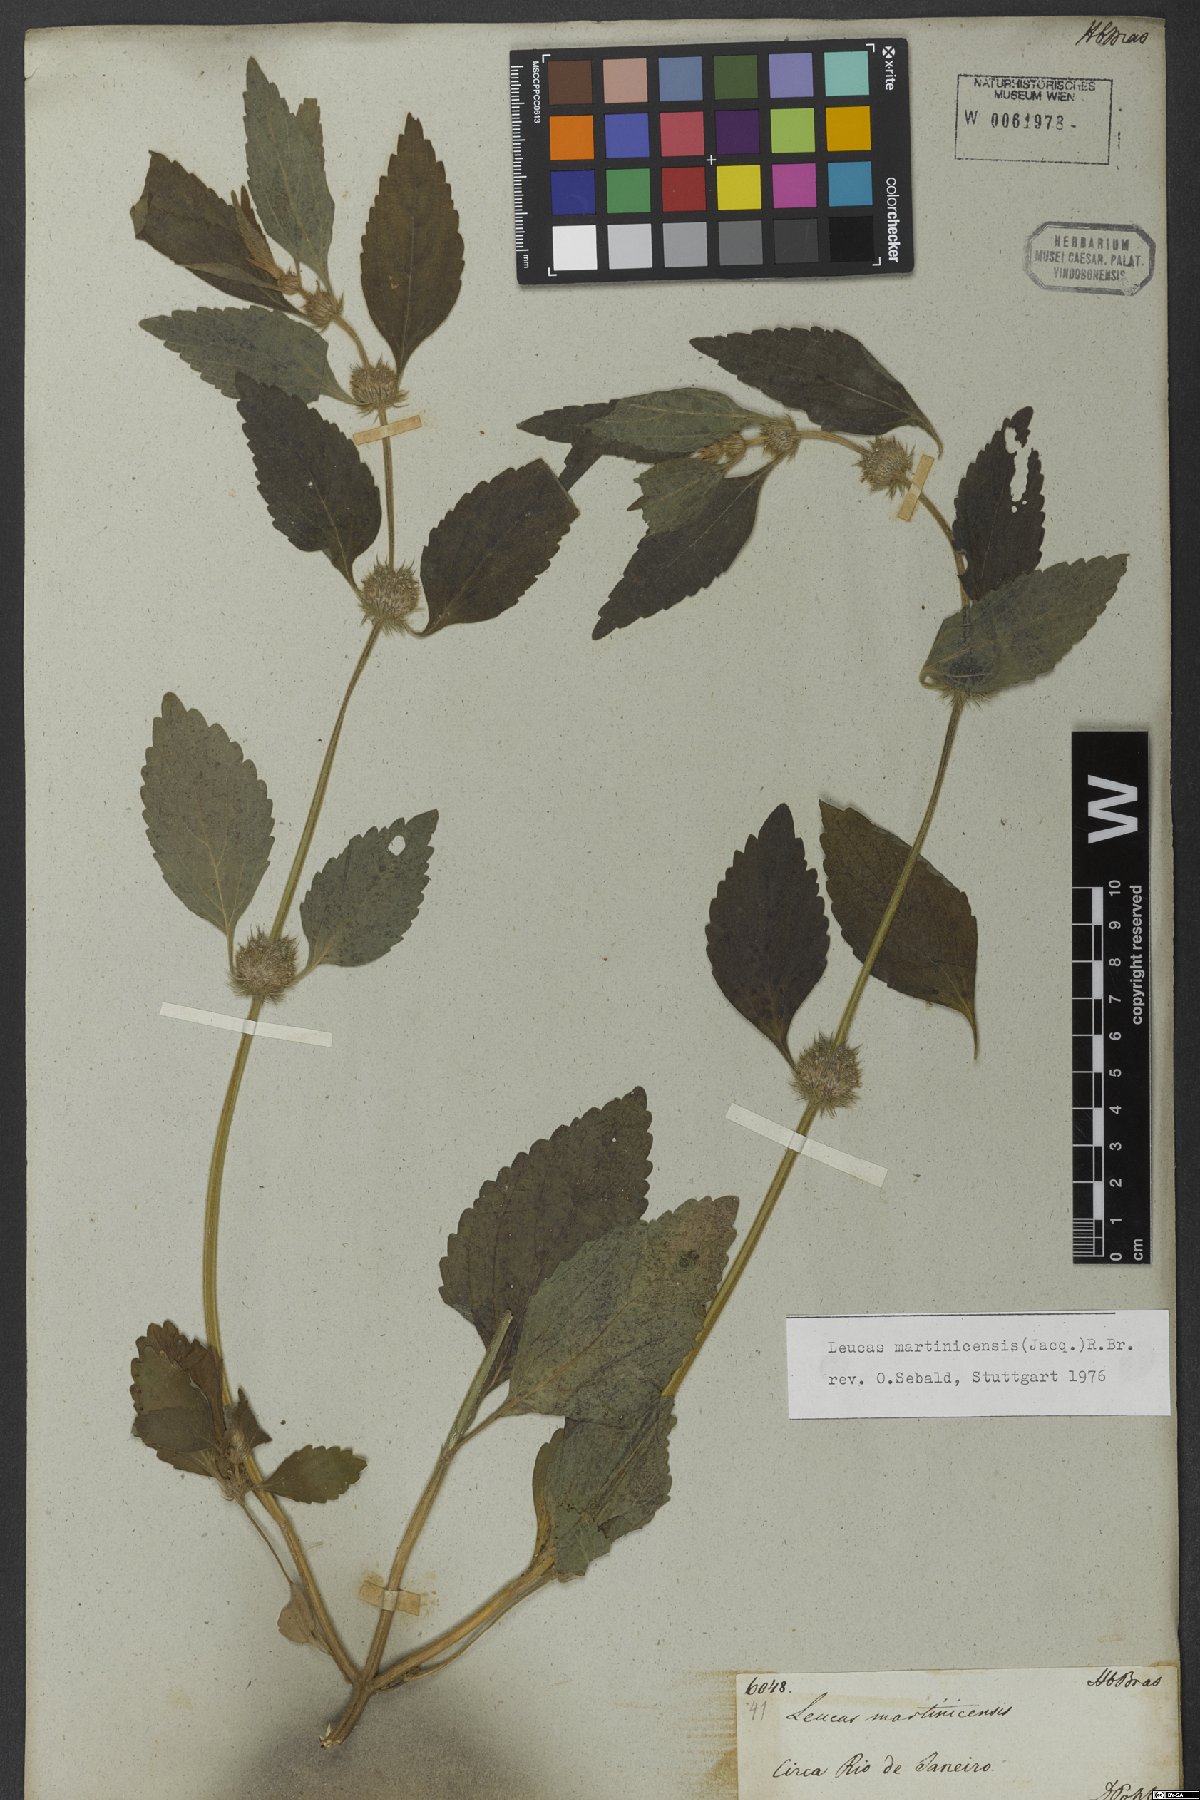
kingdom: Plantae
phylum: Tracheophyta
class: Magnoliopsida
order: Lamiales
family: Lamiaceae
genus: Leucas
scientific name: Leucas martinicensis
